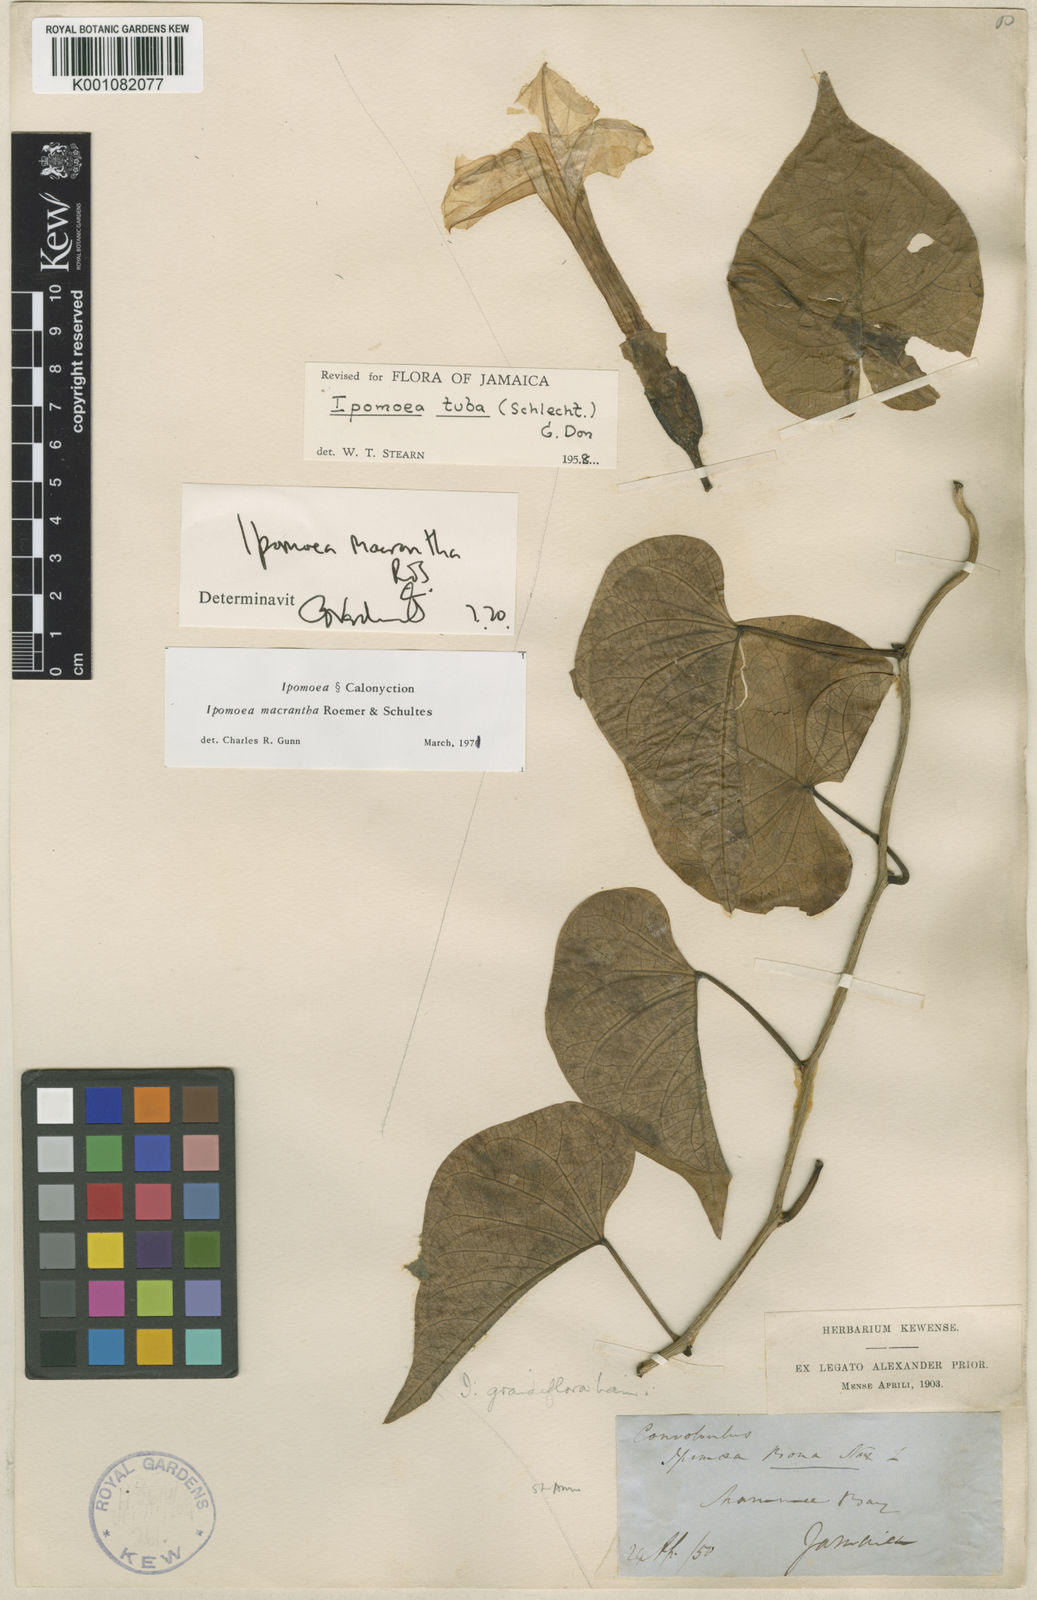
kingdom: Plantae
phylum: Tracheophyta
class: Magnoliopsida
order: Solanales
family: Convolvulaceae
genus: Ipomoea
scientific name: Ipomoea violacea
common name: Beach moonflower
